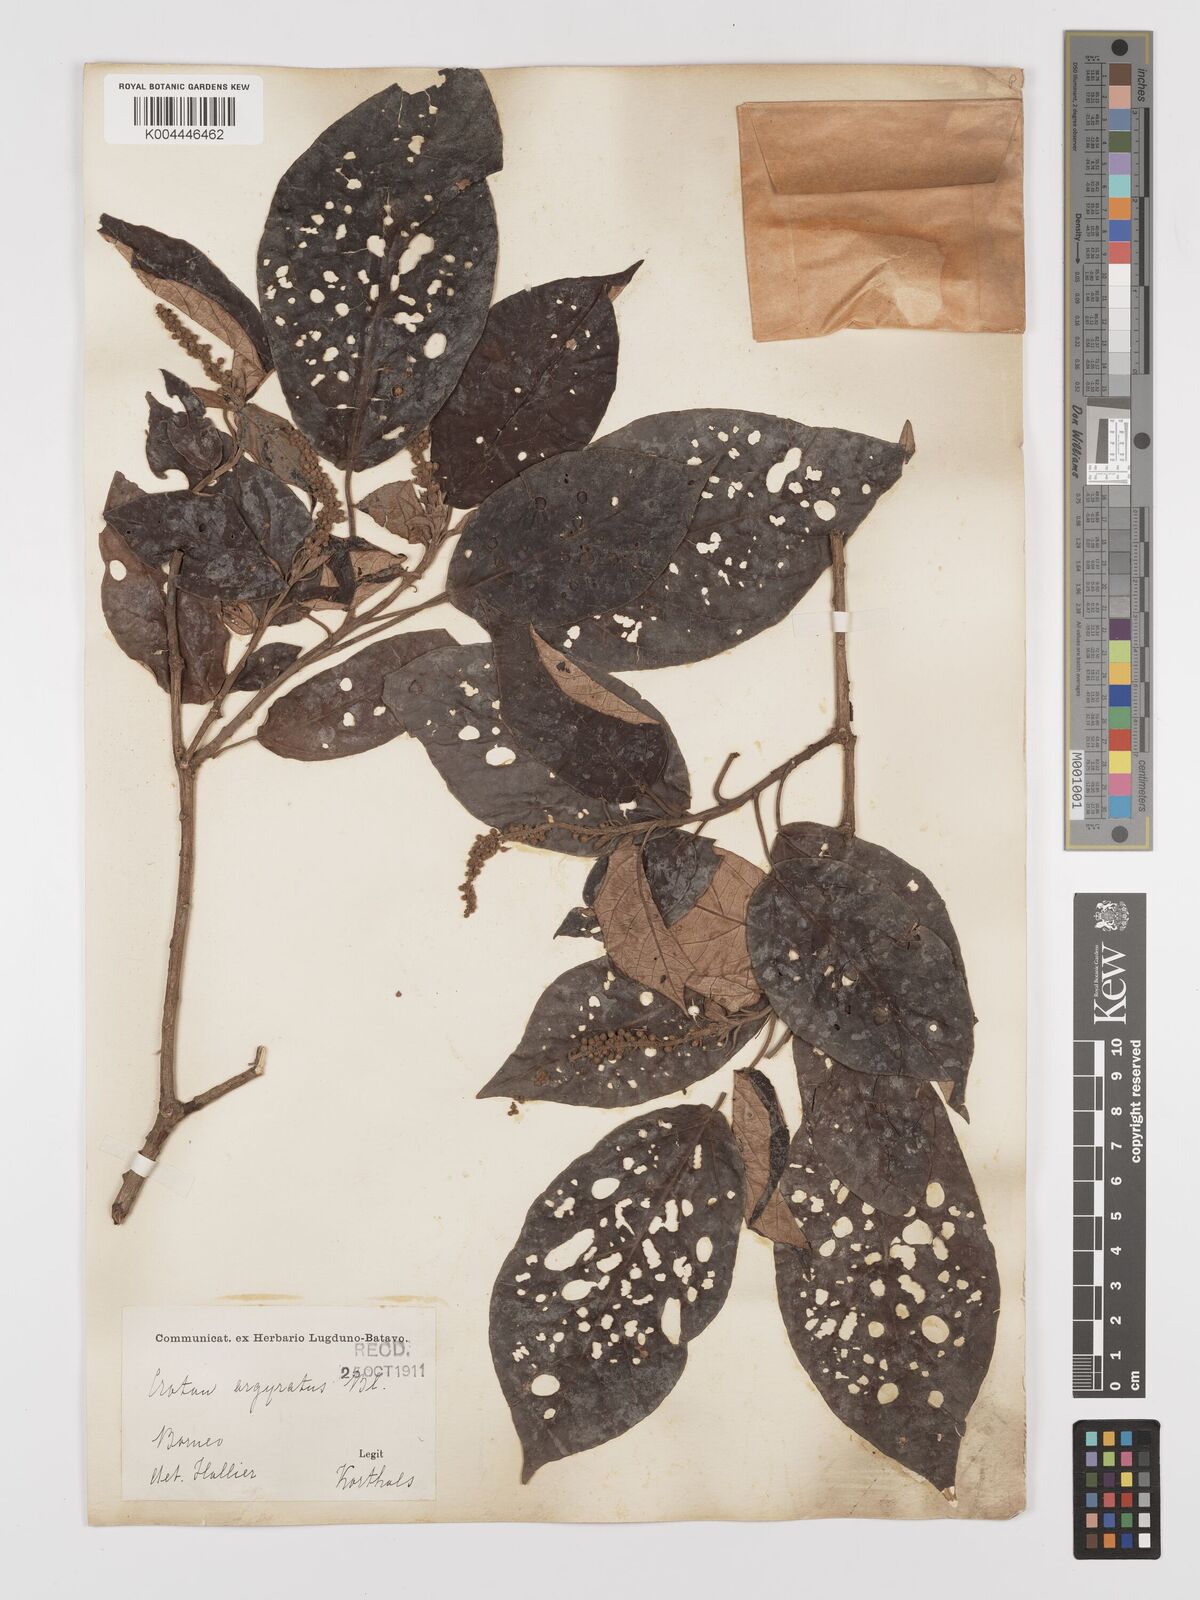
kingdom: Plantae
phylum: Tracheophyta
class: Magnoliopsida
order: Malpighiales
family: Euphorbiaceae
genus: Croton
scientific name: Croton argyratus
